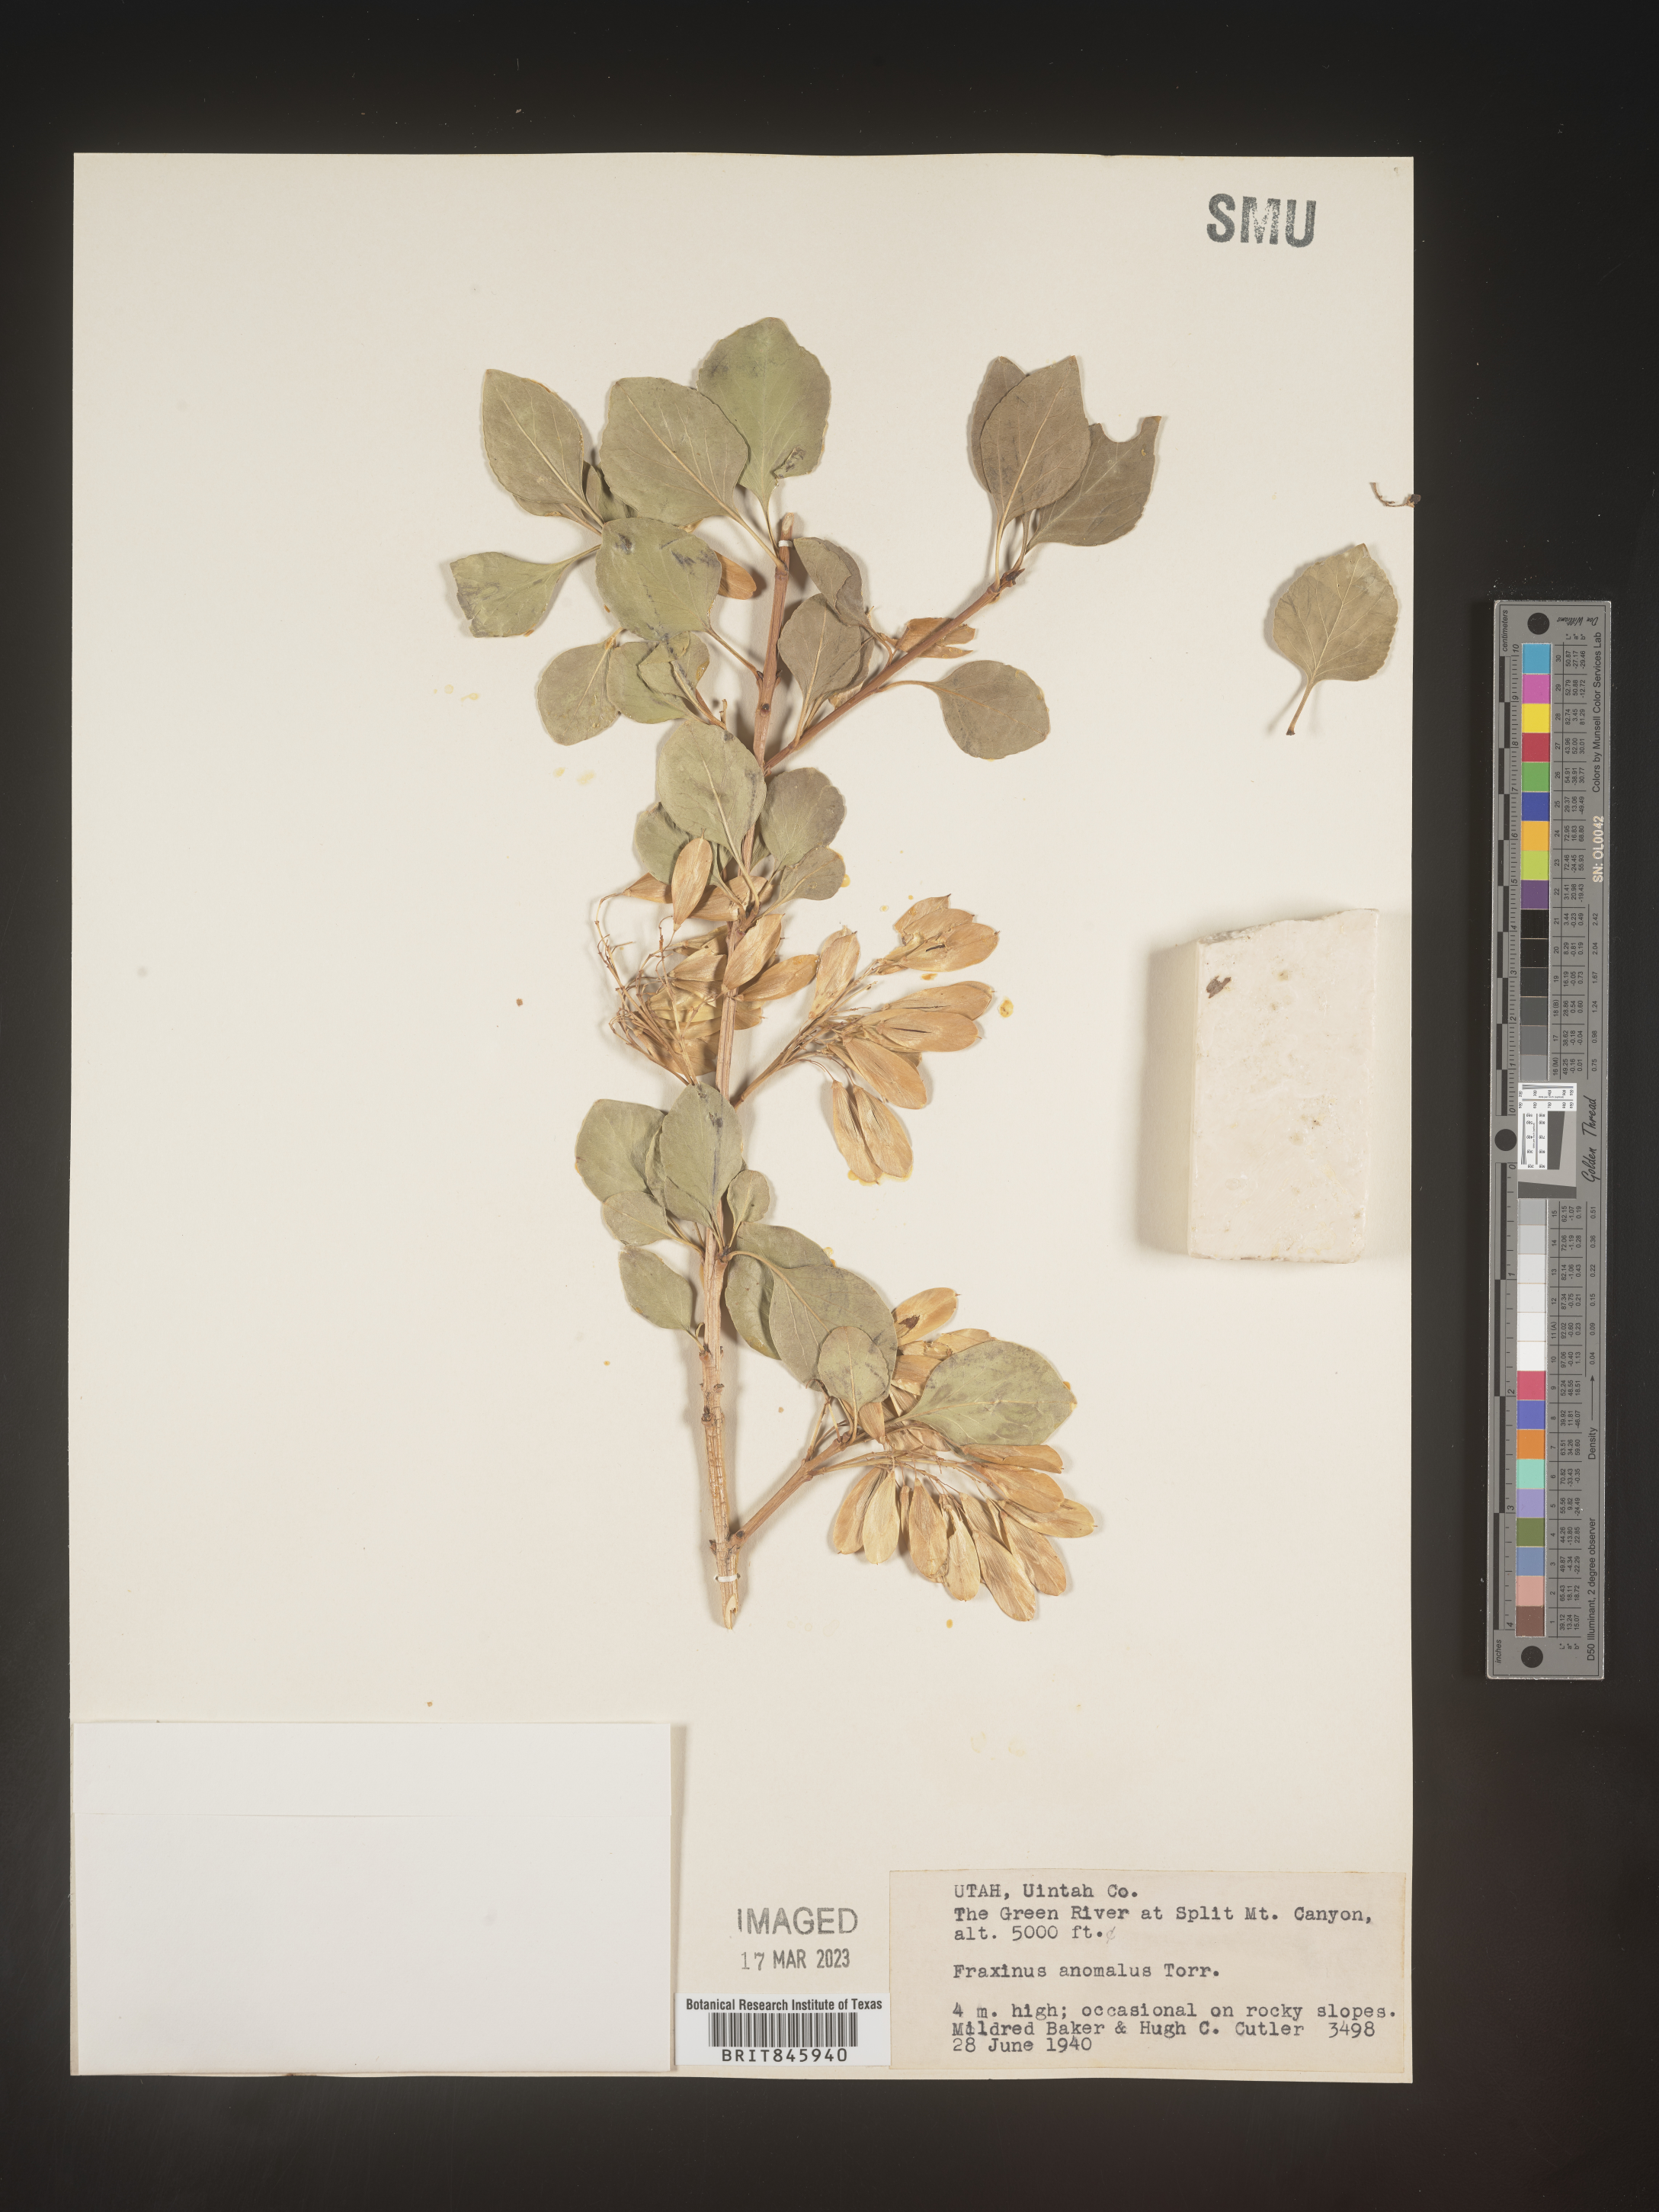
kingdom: Plantae
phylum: Tracheophyta
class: Magnoliopsida
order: Lamiales
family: Oleaceae
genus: Fraxinus
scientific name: Fraxinus anomala
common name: Utah ash
